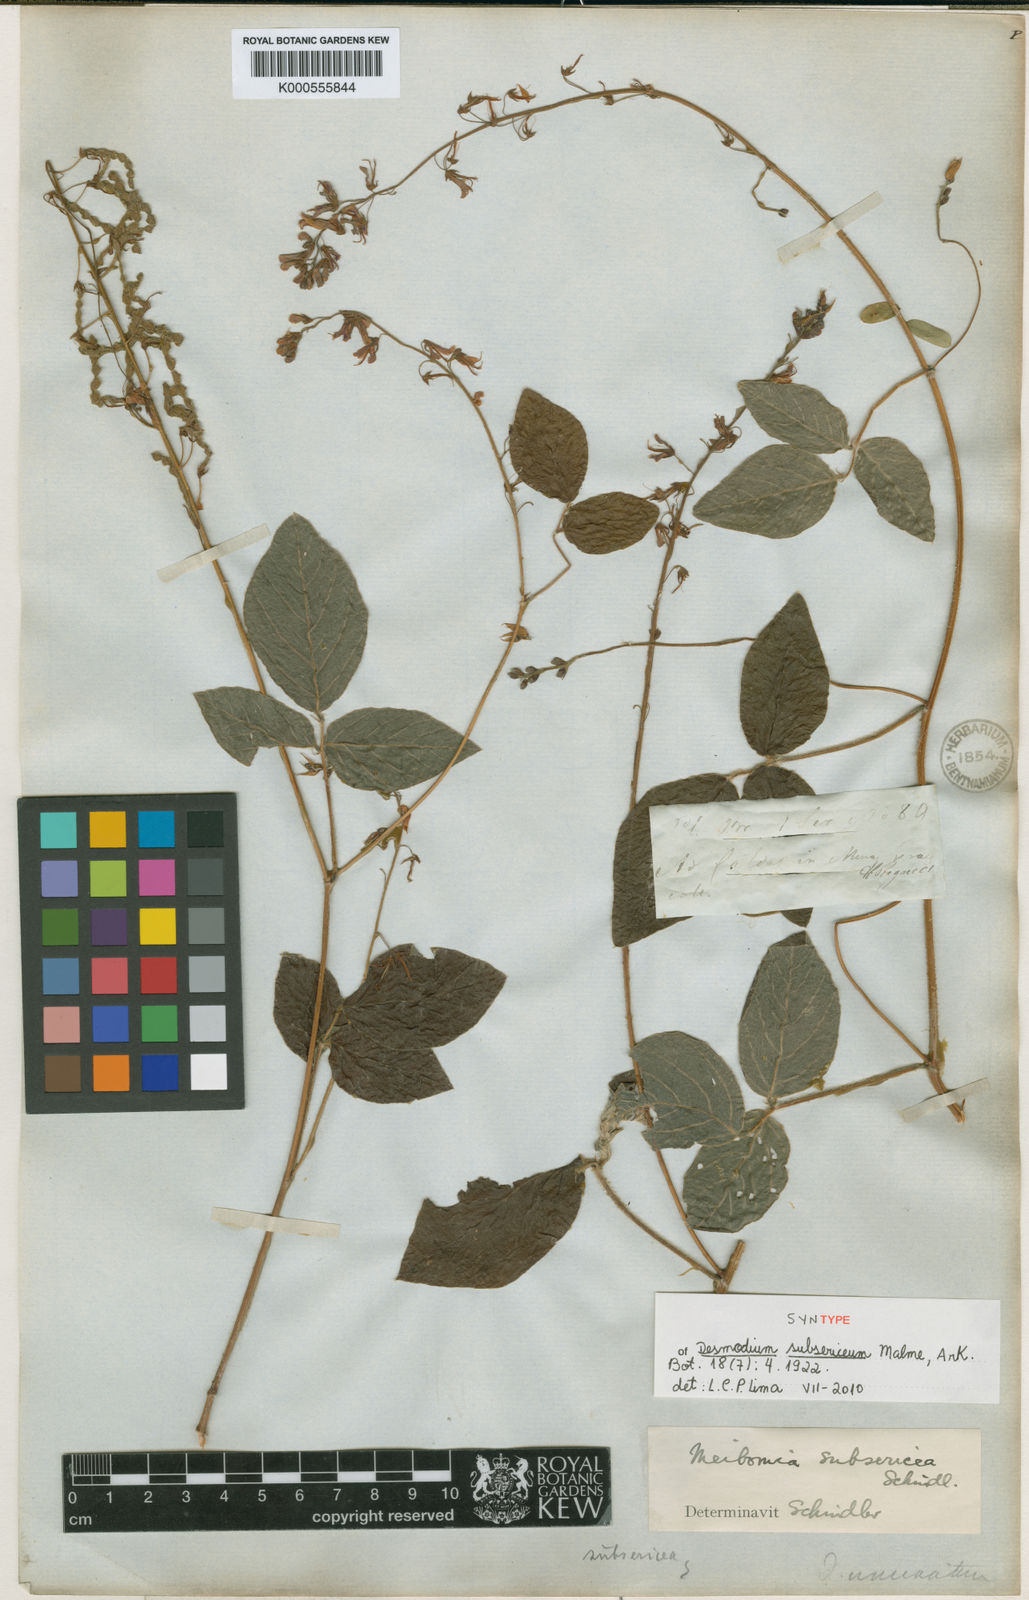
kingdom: Plantae
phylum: Tracheophyta
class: Magnoliopsida
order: Fabales
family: Fabaceae
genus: Desmodium
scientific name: Desmodium subsericeum
